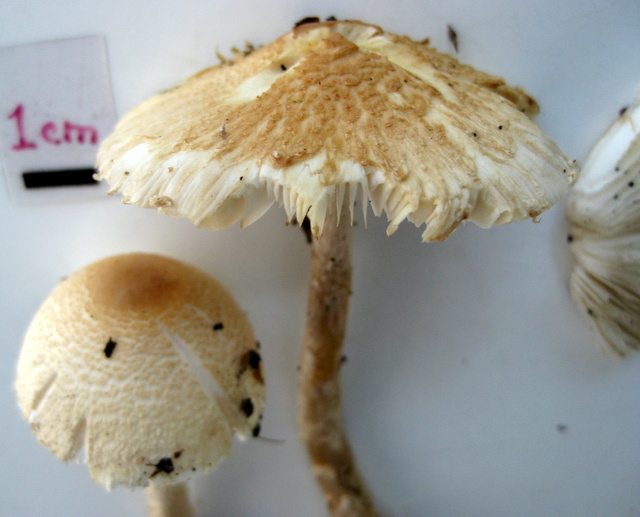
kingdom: Fungi
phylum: Basidiomycota
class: Agaricomycetes
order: Agaricales
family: Agaricaceae
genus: Lepiota
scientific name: Lepiota clypeolaria
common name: flosset parasolhat
